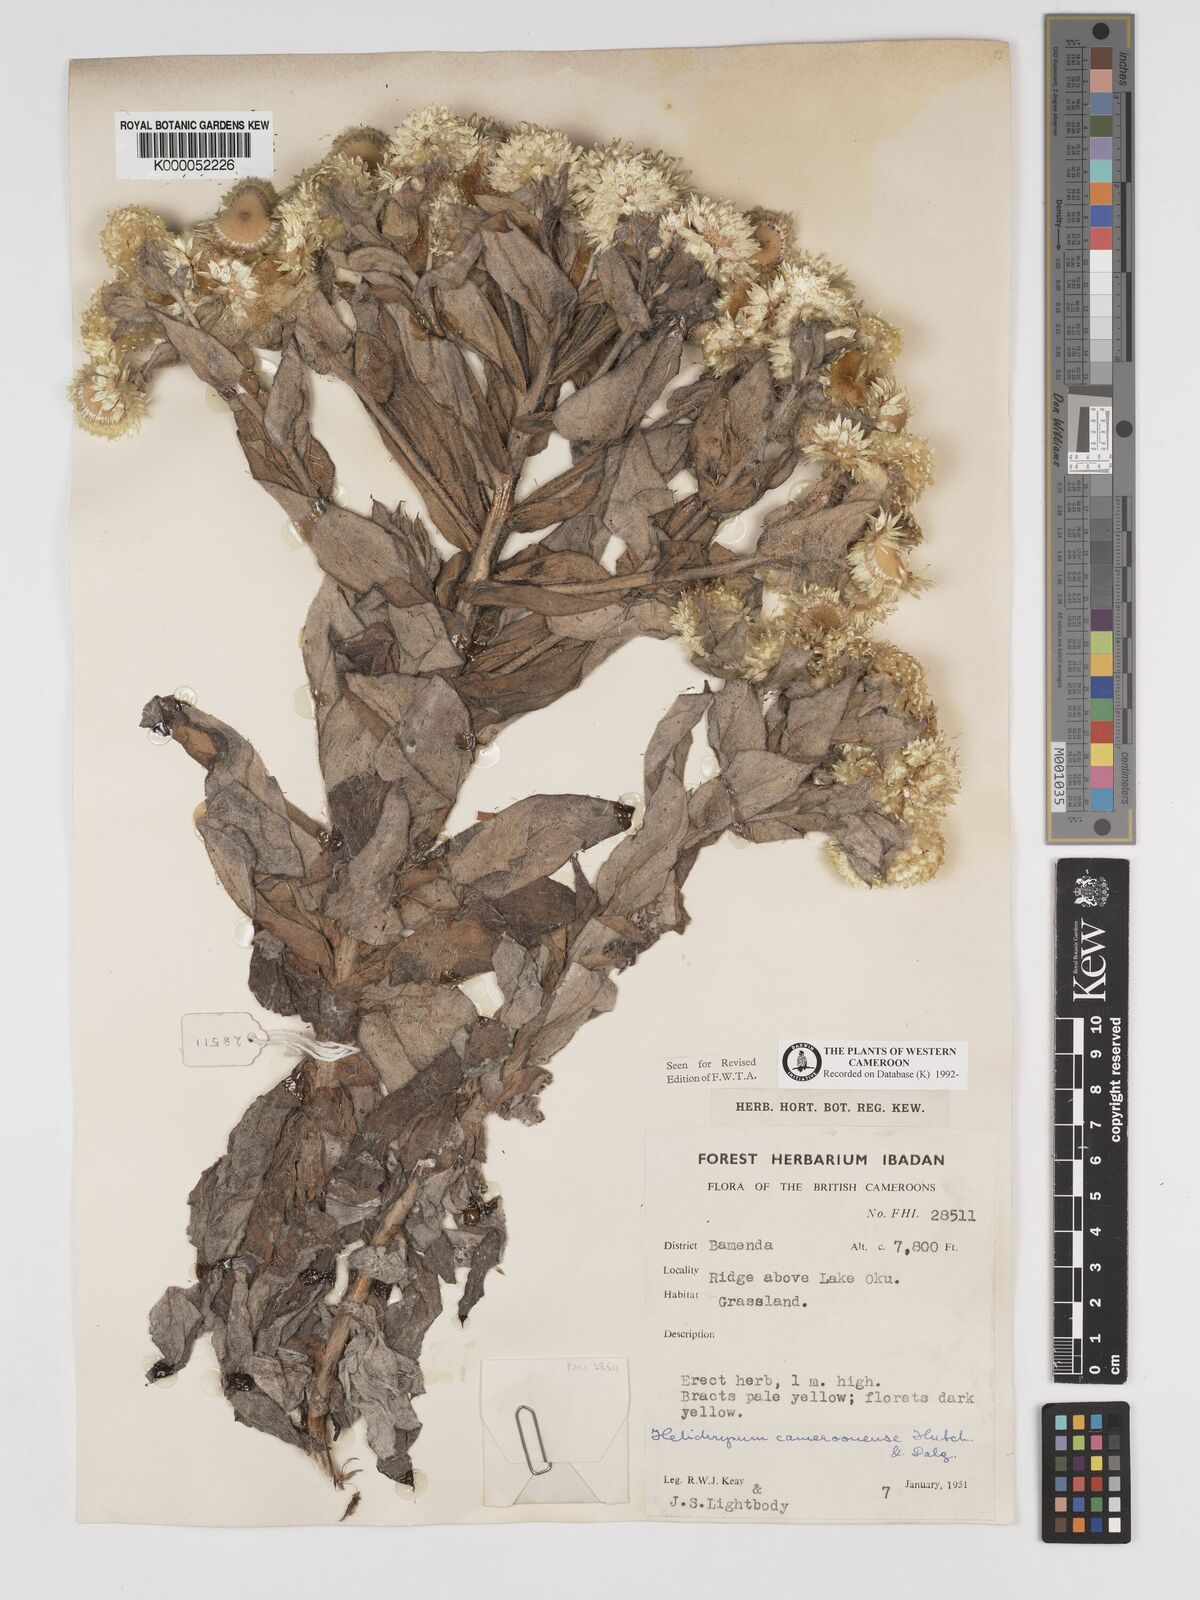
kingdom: Plantae
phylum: Tracheophyta
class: Magnoliopsida
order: Asterales
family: Asteraceae
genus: Helichrysum
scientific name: Helichrysum cameroonense
